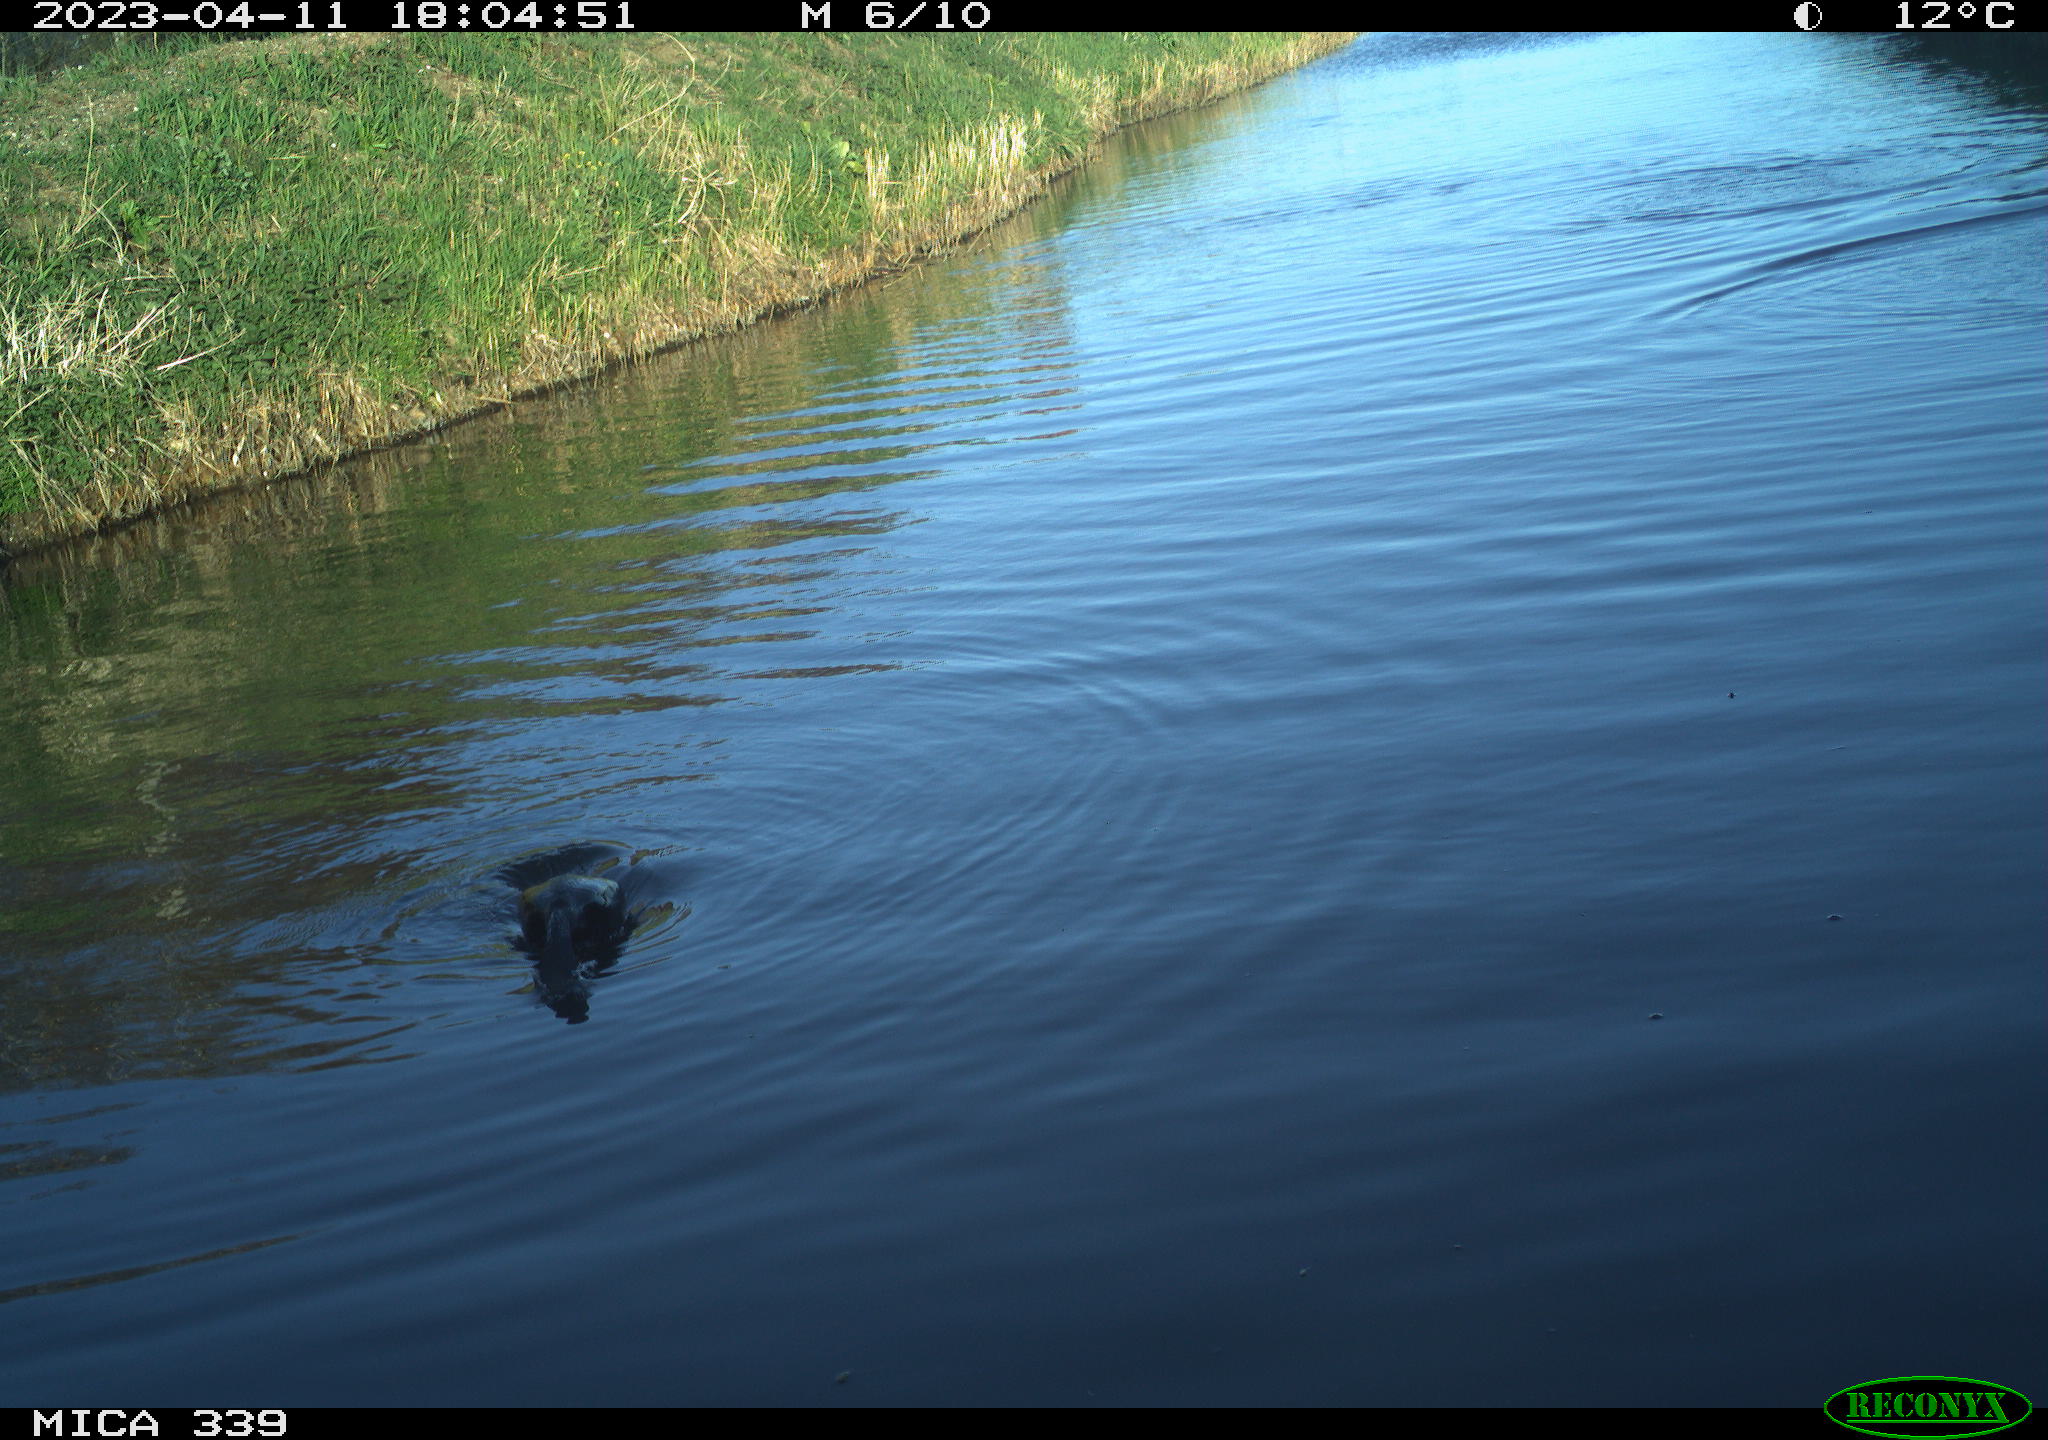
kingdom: Animalia
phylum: Chordata
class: Aves
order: Anseriformes
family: Anatidae
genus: Anas
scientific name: Anas platyrhynchos
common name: Mallard
